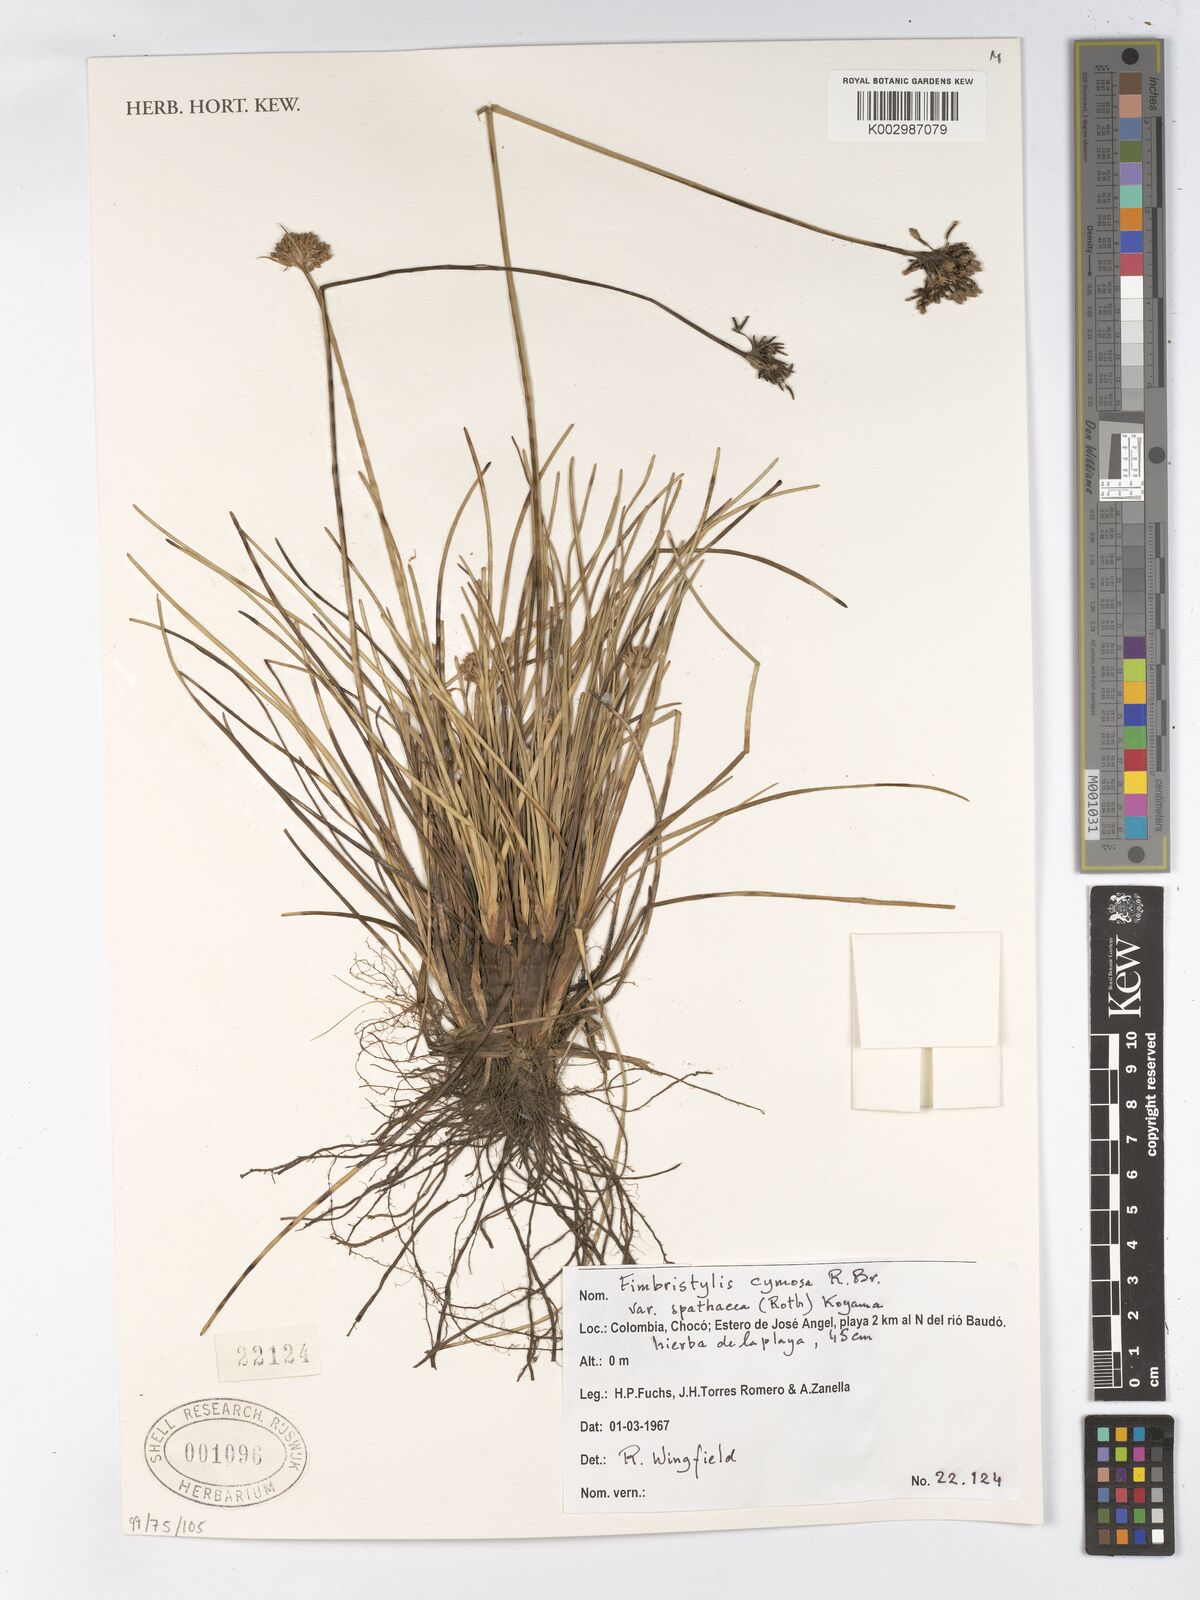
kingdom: Plantae
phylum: Tracheophyta
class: Liliopsida
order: Poales
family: Cyperaceae
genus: Fimbristylis
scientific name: Fimbristylis cymosa
